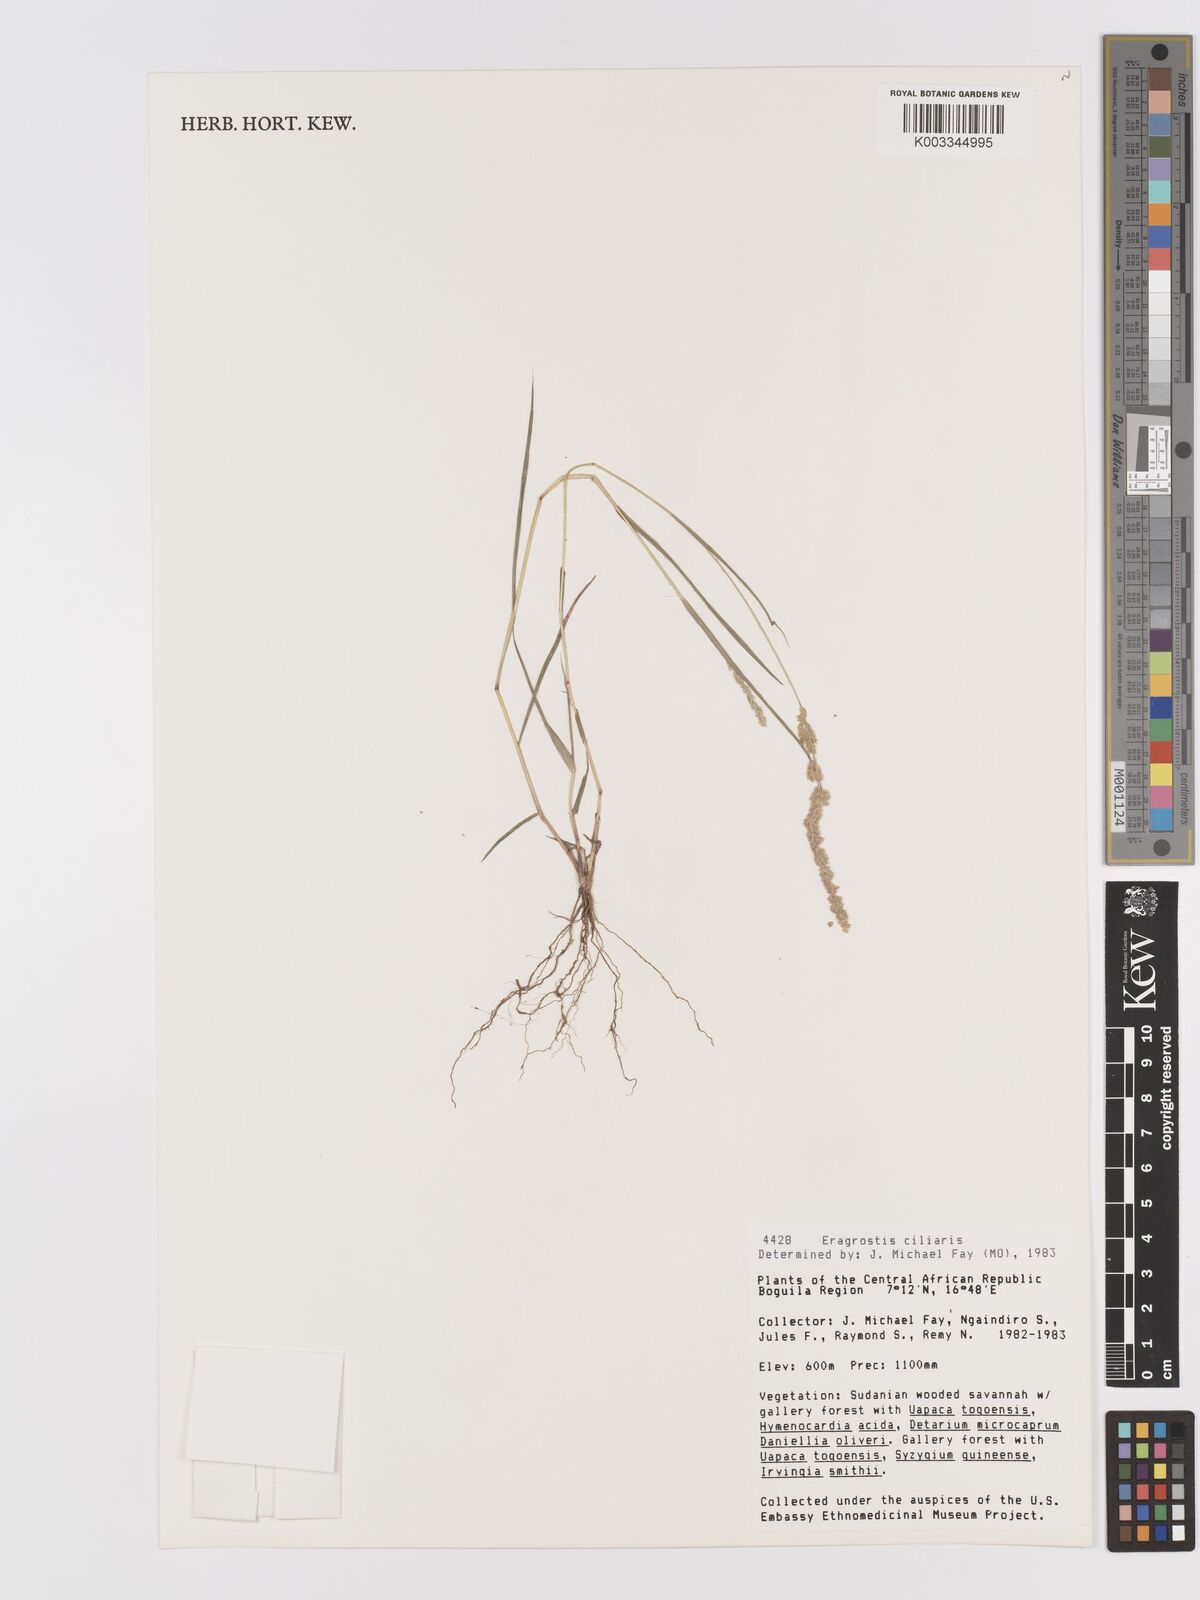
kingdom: Plantae
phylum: Tracheophyta
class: Liliopsida
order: Poales
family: Poaceae
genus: Eragrostis
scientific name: Eragrostis ciliaris
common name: Gophertail lovegrass
